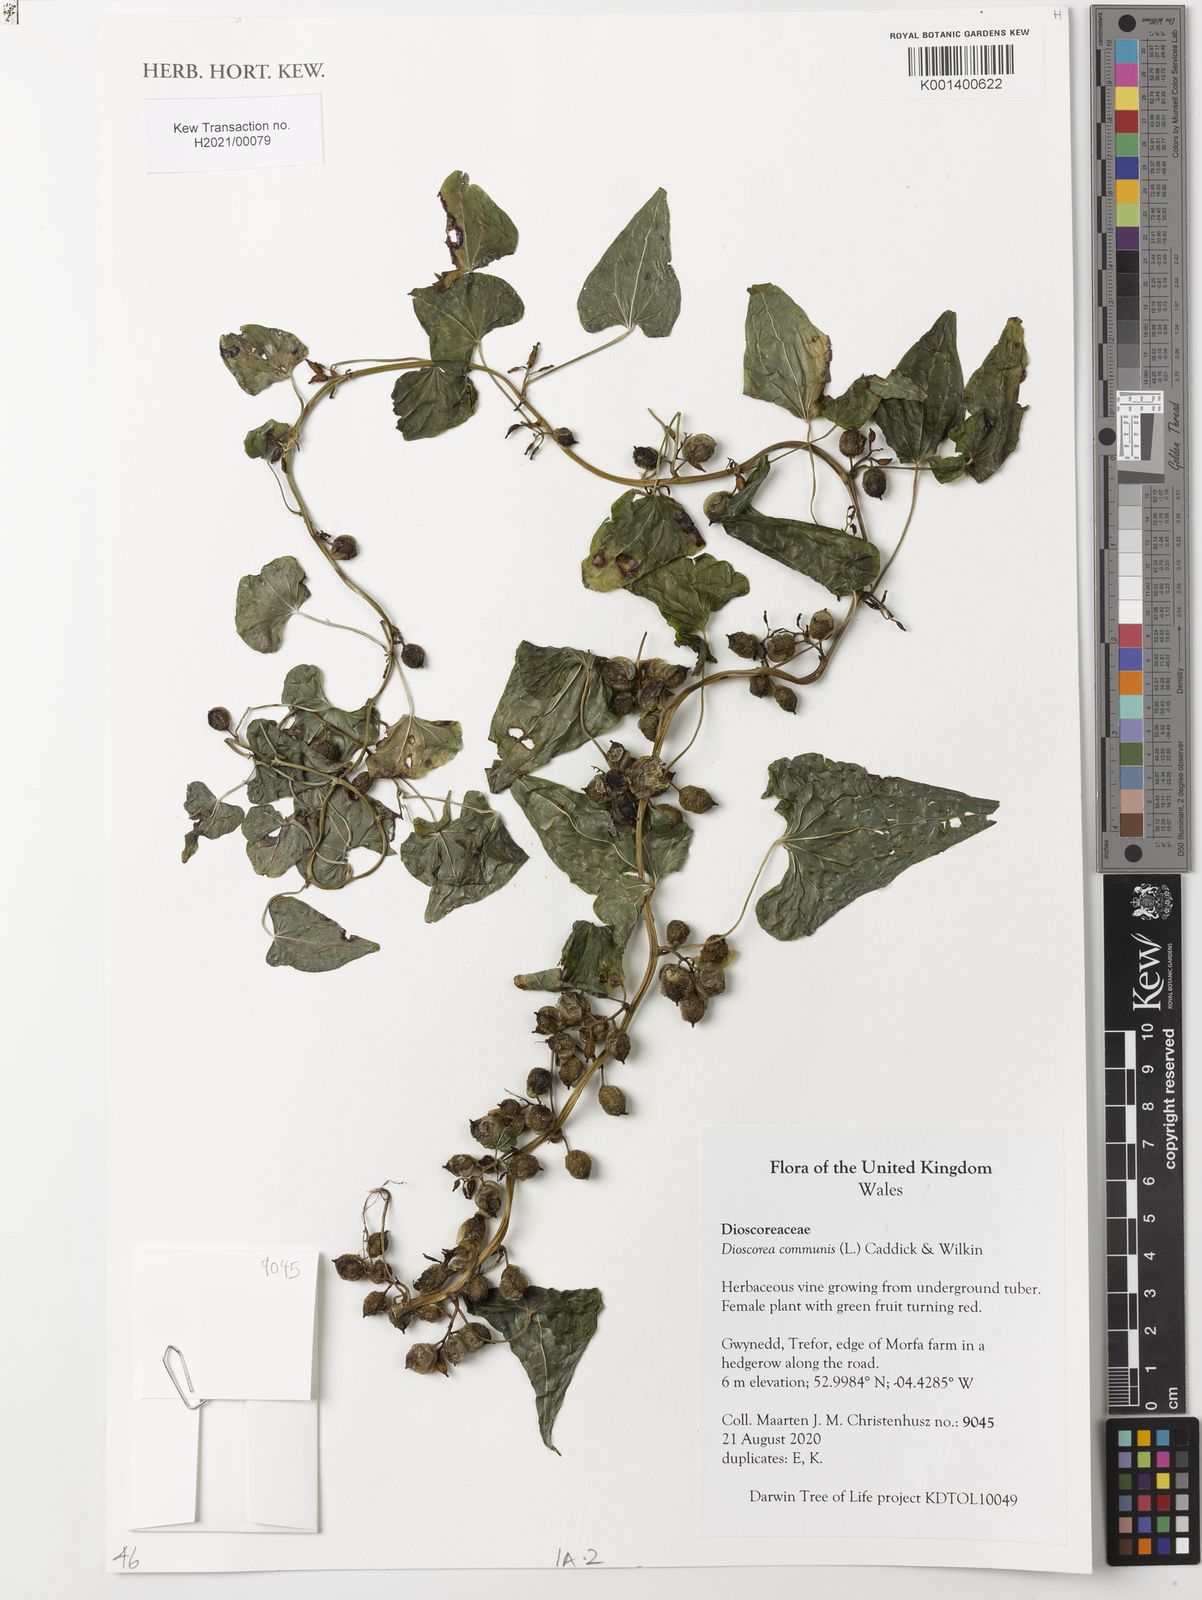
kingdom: Plantae
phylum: Tracheophyta
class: Liliopsida
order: Dioscoreales
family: Dioscoreaceae
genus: Dioscorea
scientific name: Dioscorea communis
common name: Black-bindweed
